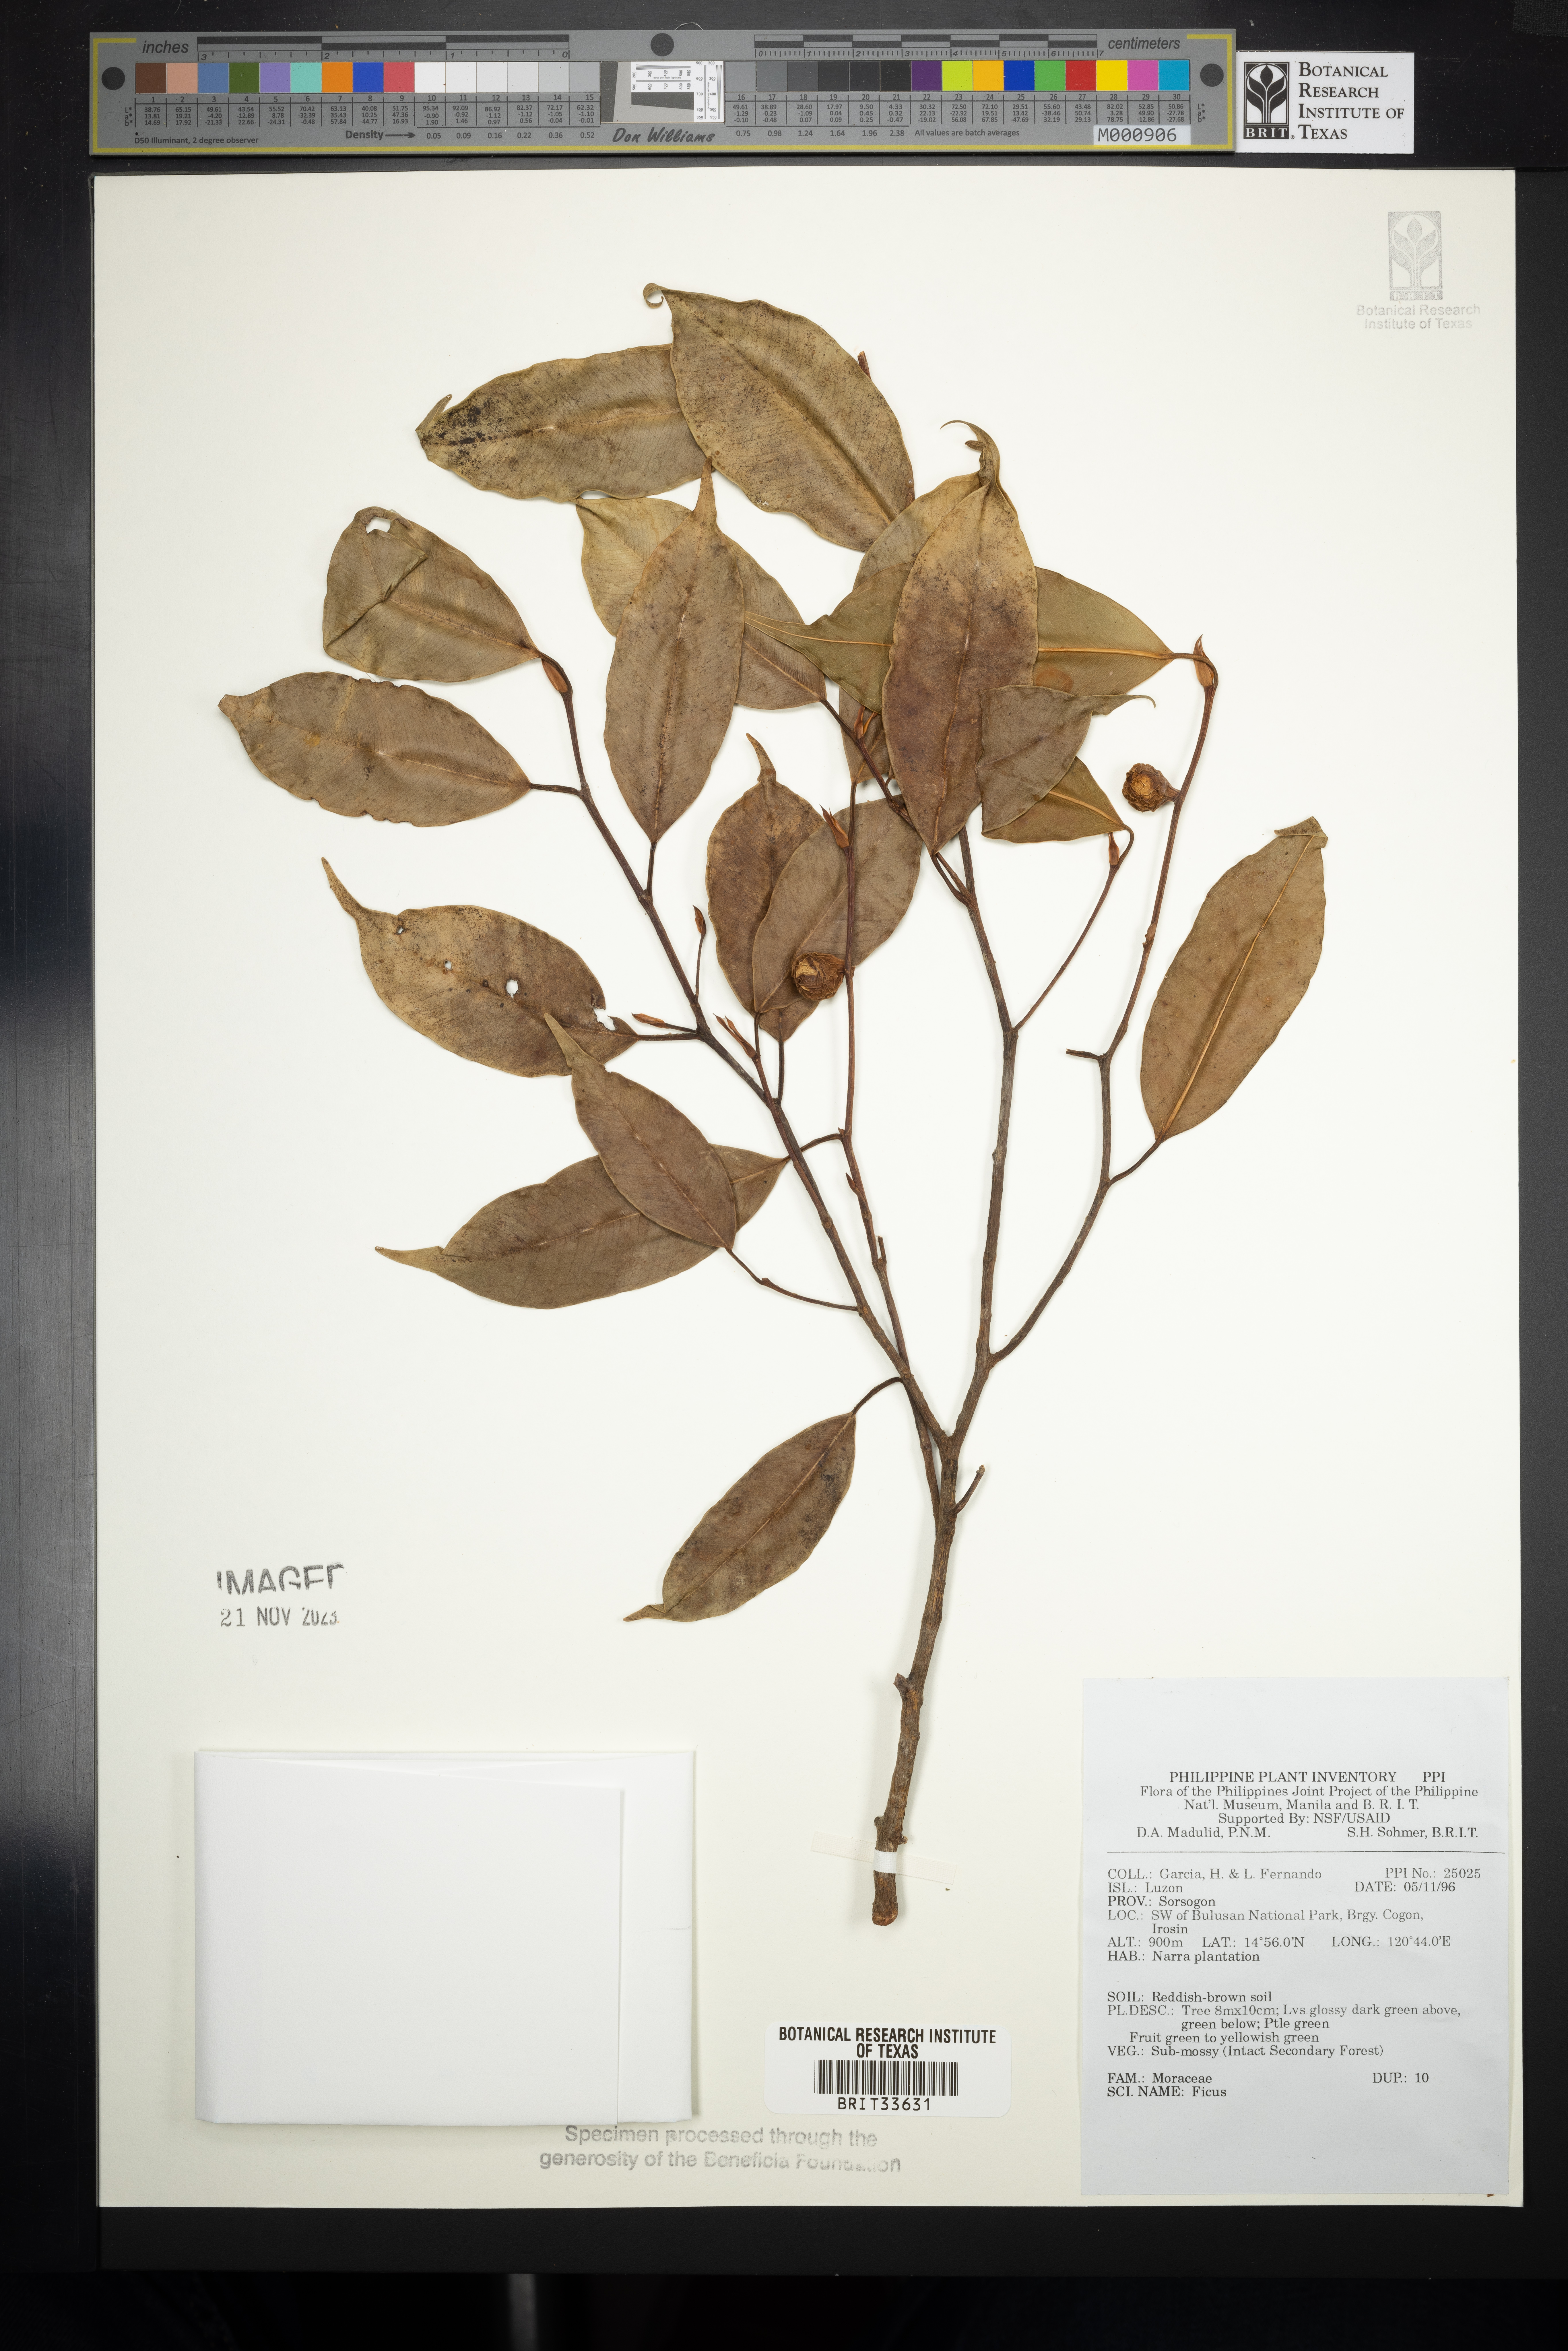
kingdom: Plantae
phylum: Tracheophyta
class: Magnoliopsida
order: Rosales
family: Moraceae
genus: Ficus
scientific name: Ficus
